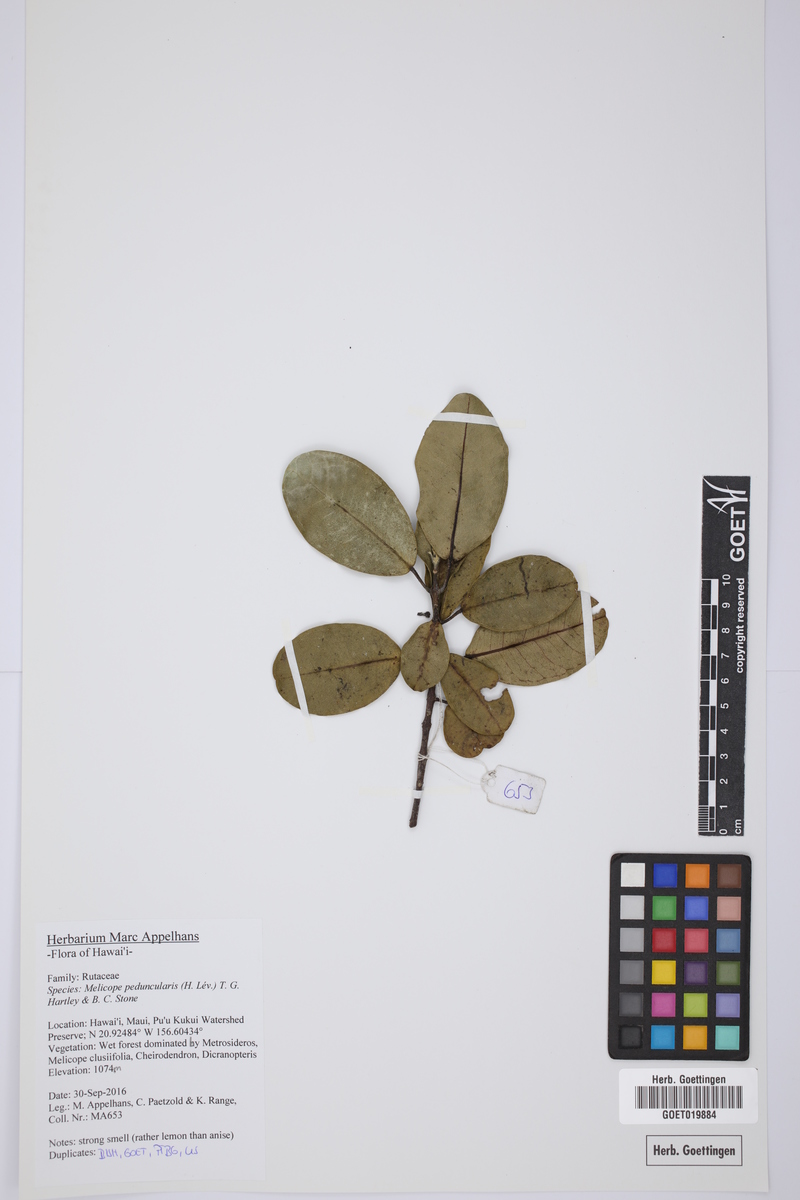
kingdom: Plantae
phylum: Tracheophyta
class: Magnoliopsida
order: Sapindales
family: Rutaceae
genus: Melicope
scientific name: Melicope peduncularis
